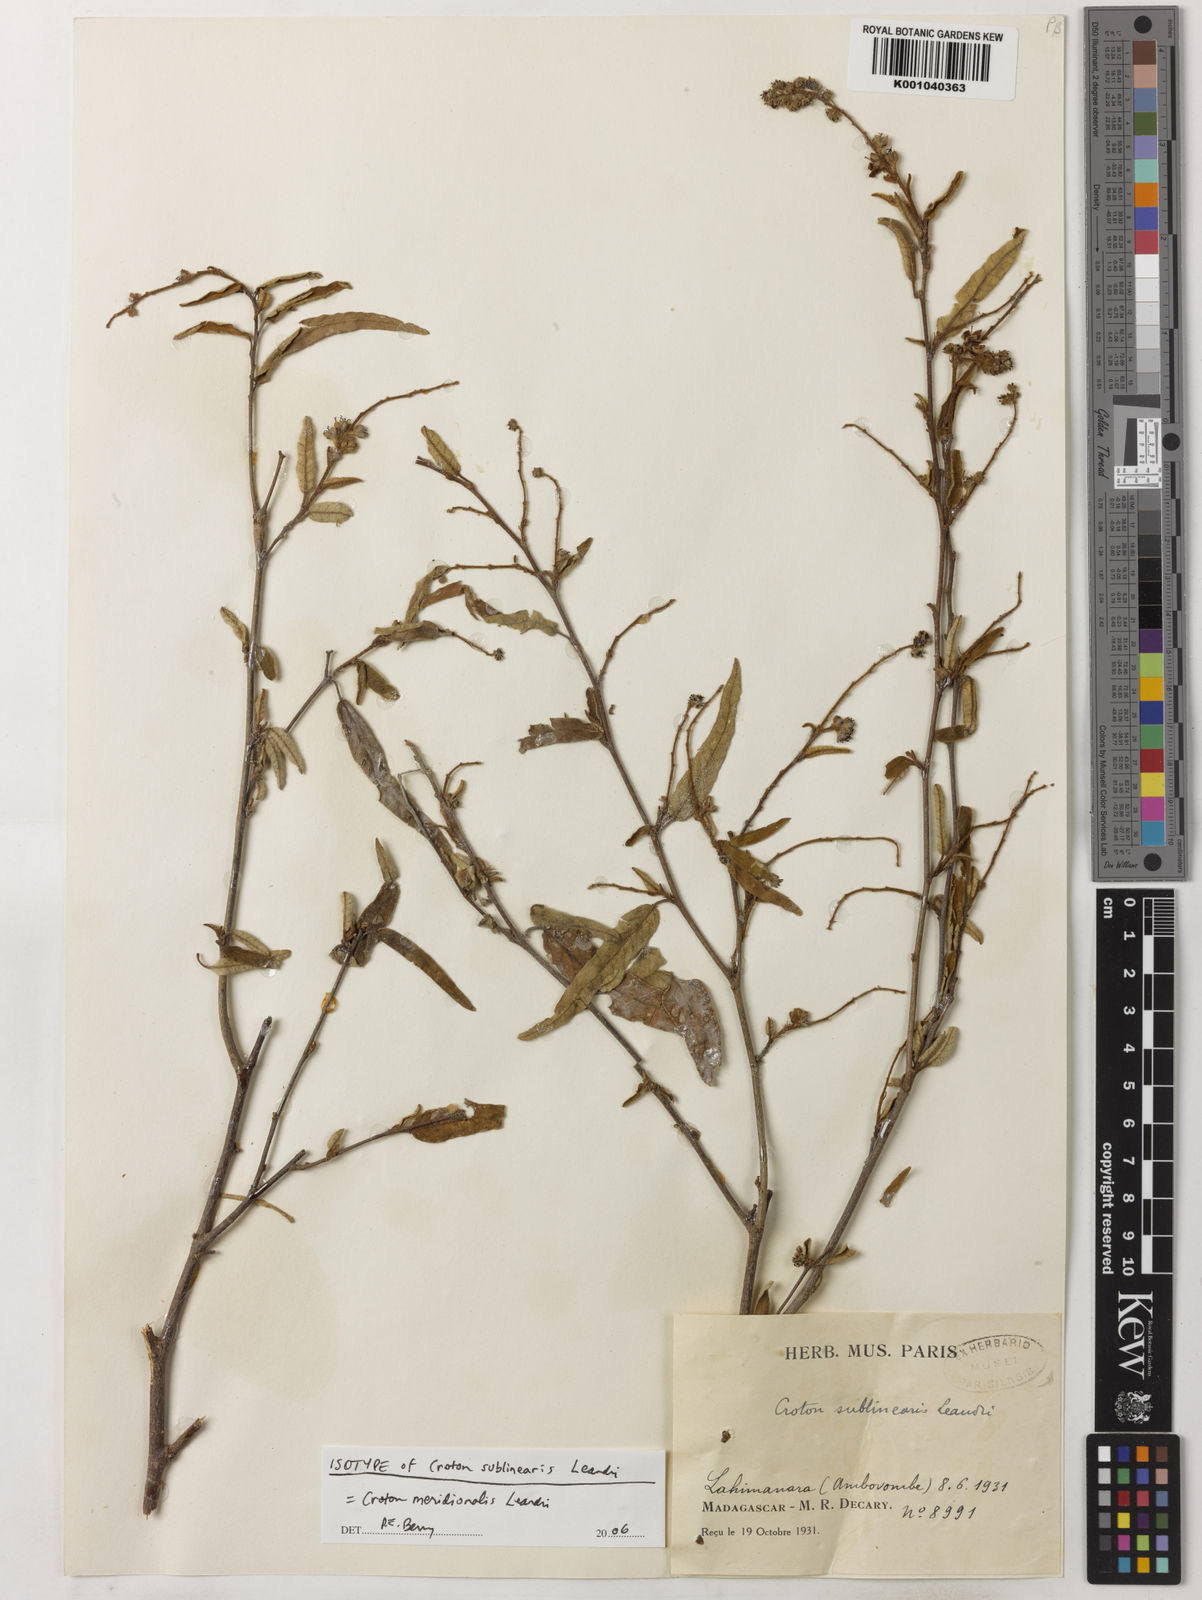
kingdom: Plantae
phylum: Tracheophyta
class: Magnoliopsida
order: Malpighiales
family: Euphorbiaceae
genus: Croton
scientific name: Croton meridionalis
